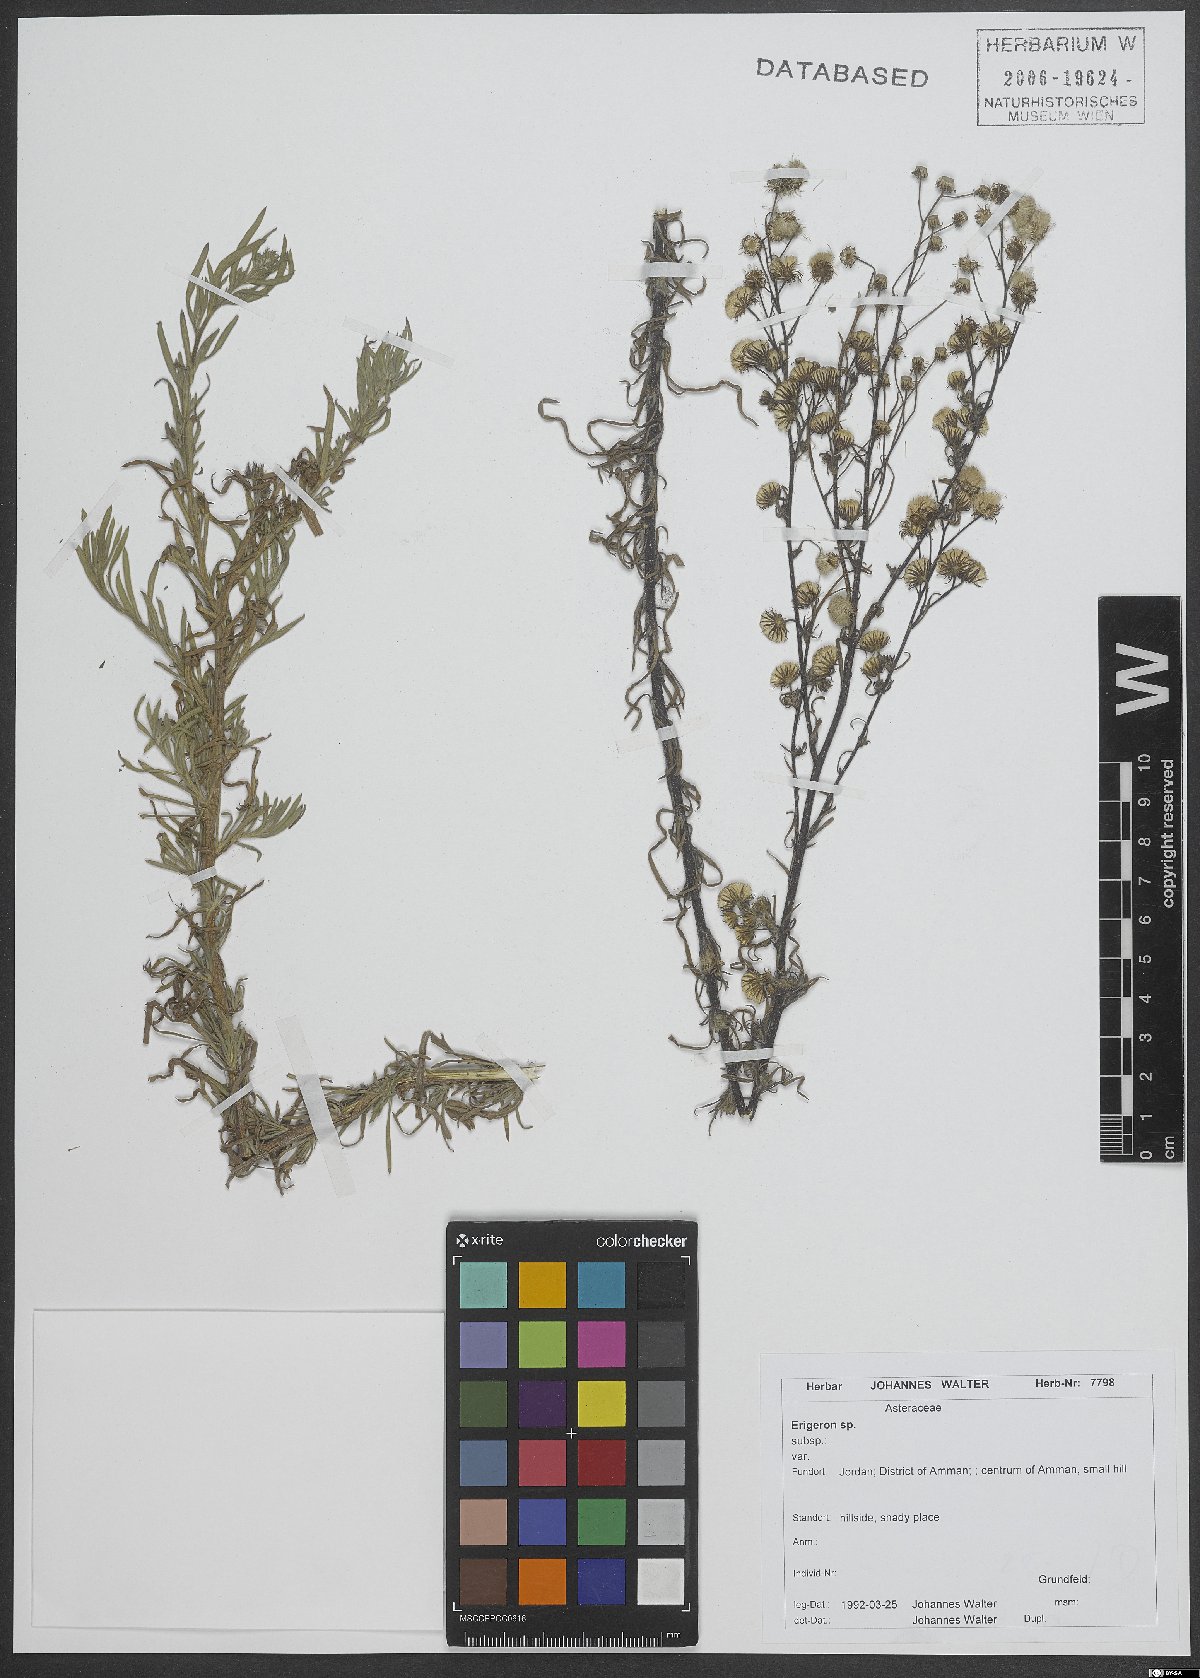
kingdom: Plantae
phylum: Tracheophyta
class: Magnoliopsida
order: Asterales
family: Asteraceae
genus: Erigeron
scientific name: Erigeron
